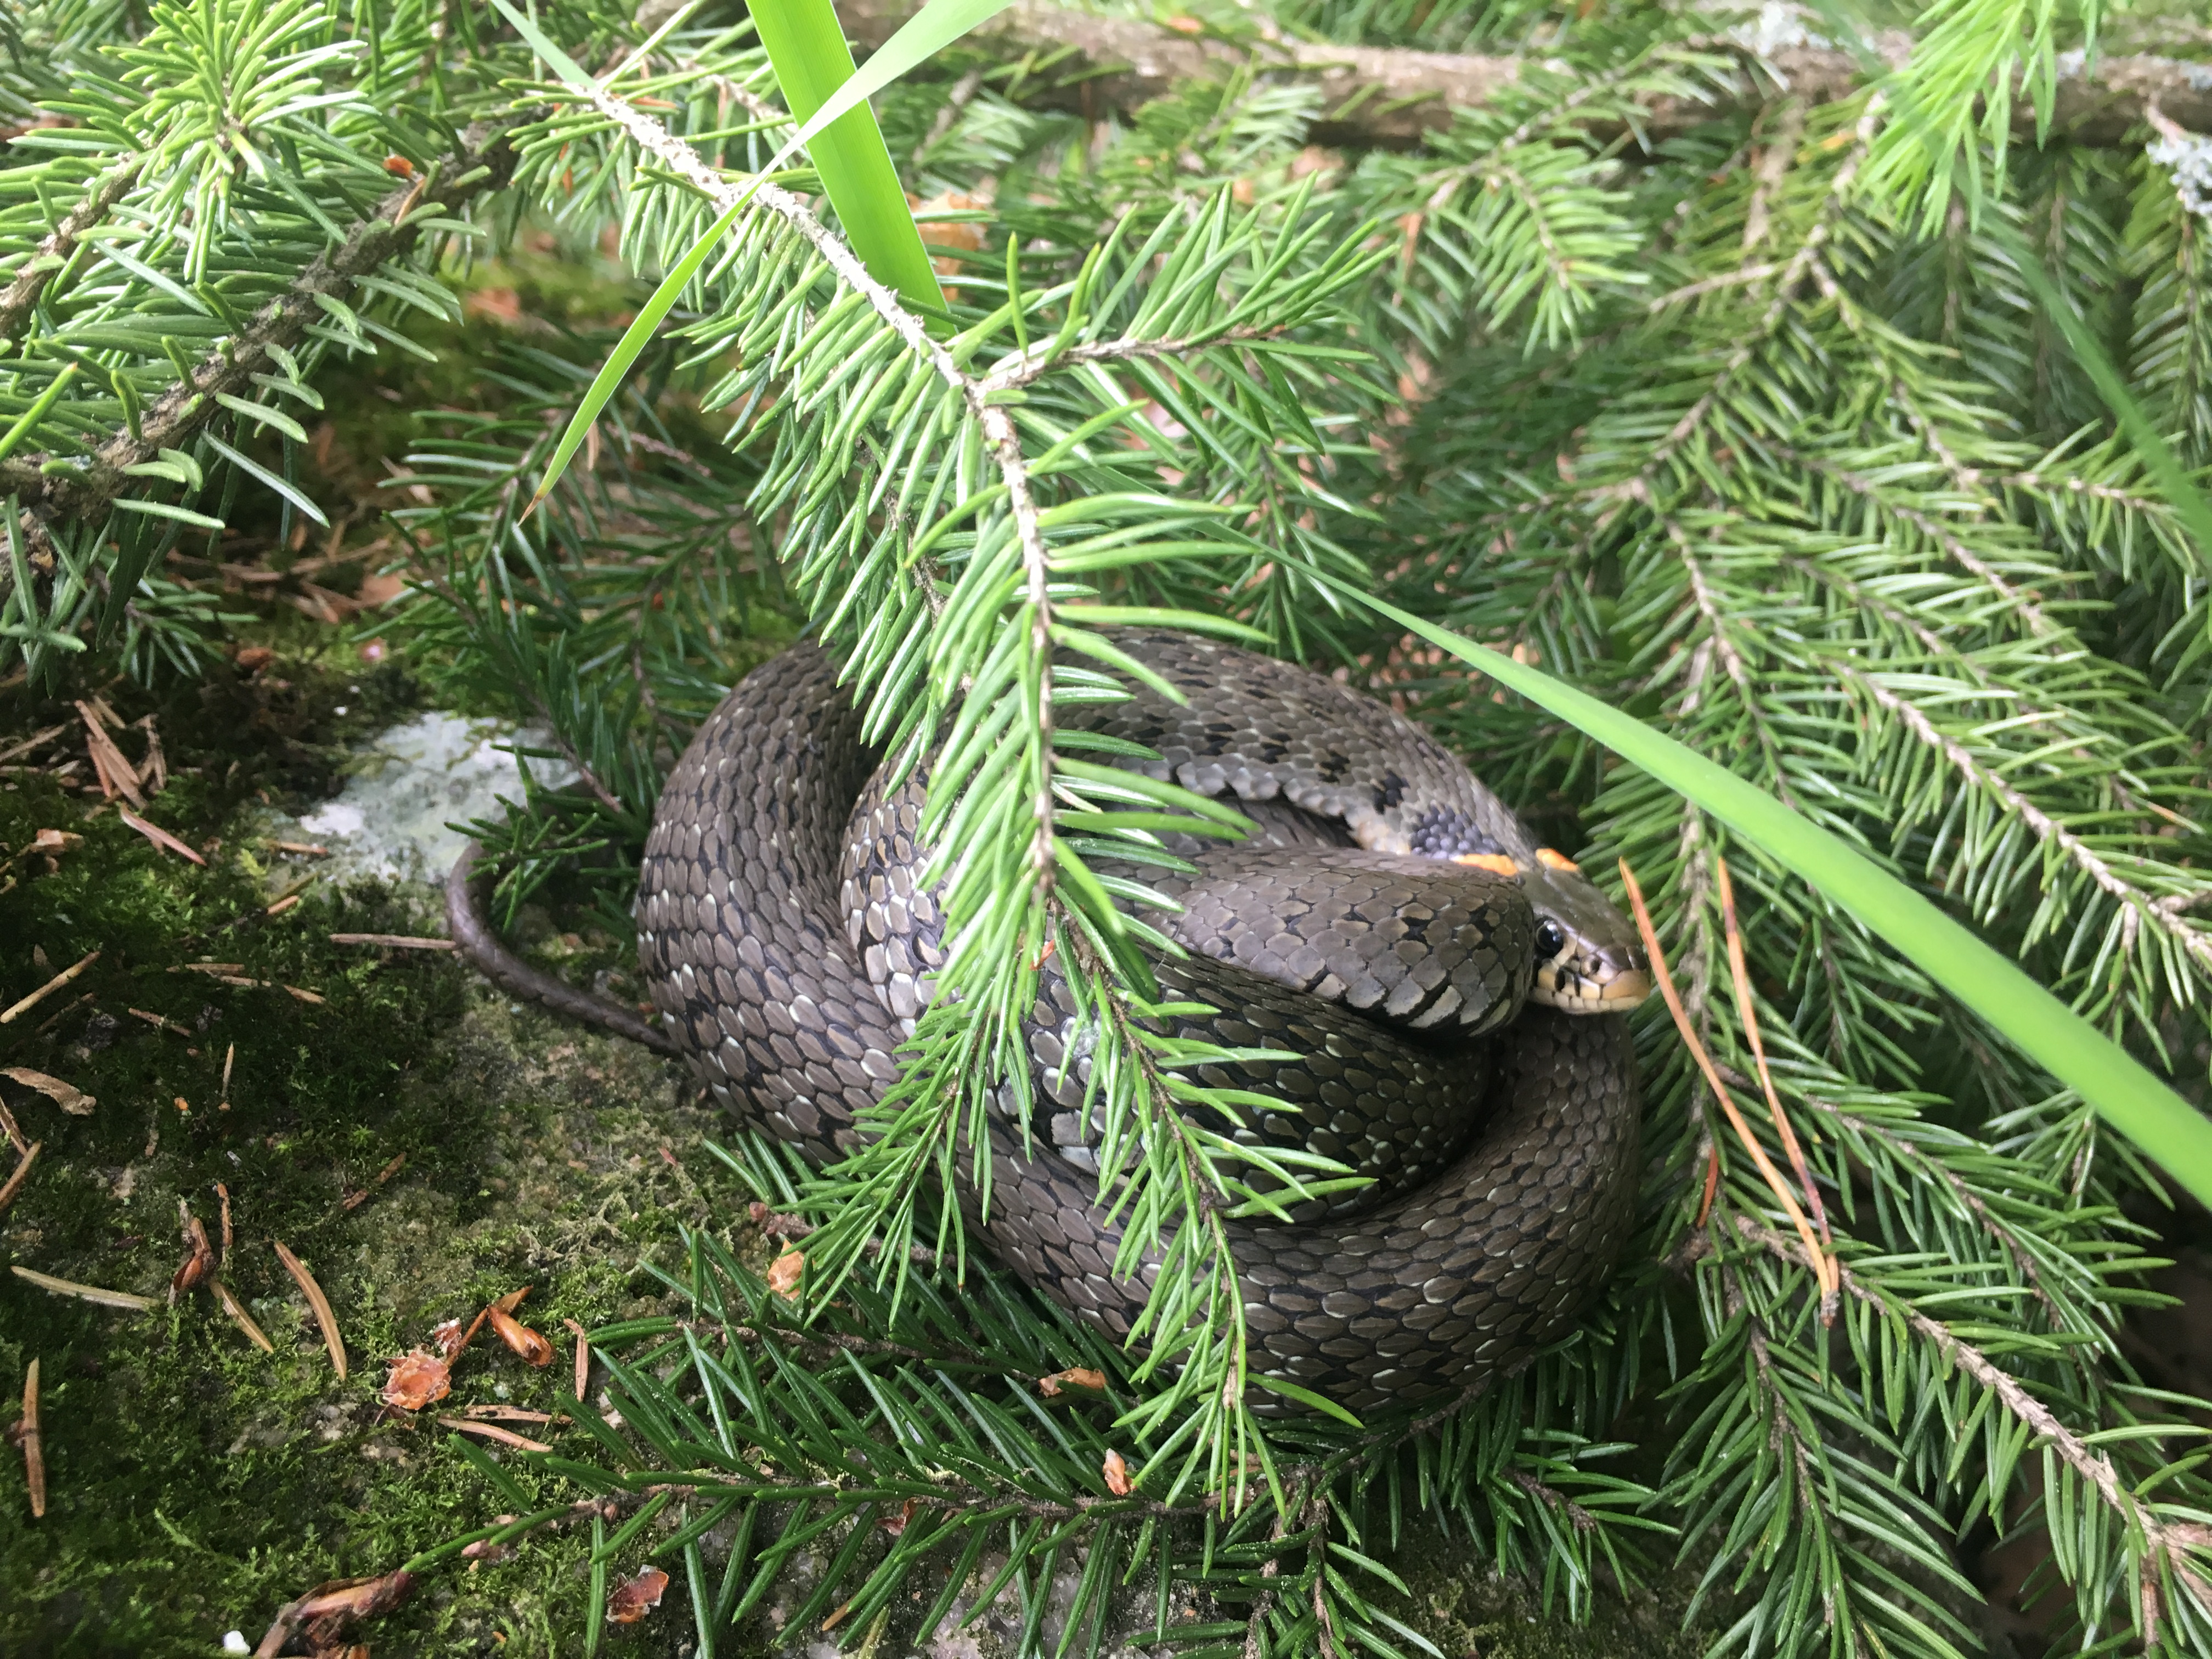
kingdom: Animalia
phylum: Chordata
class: Squamata
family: Colubridae
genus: Natrix
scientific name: Natrix natrix
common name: Grass snake
